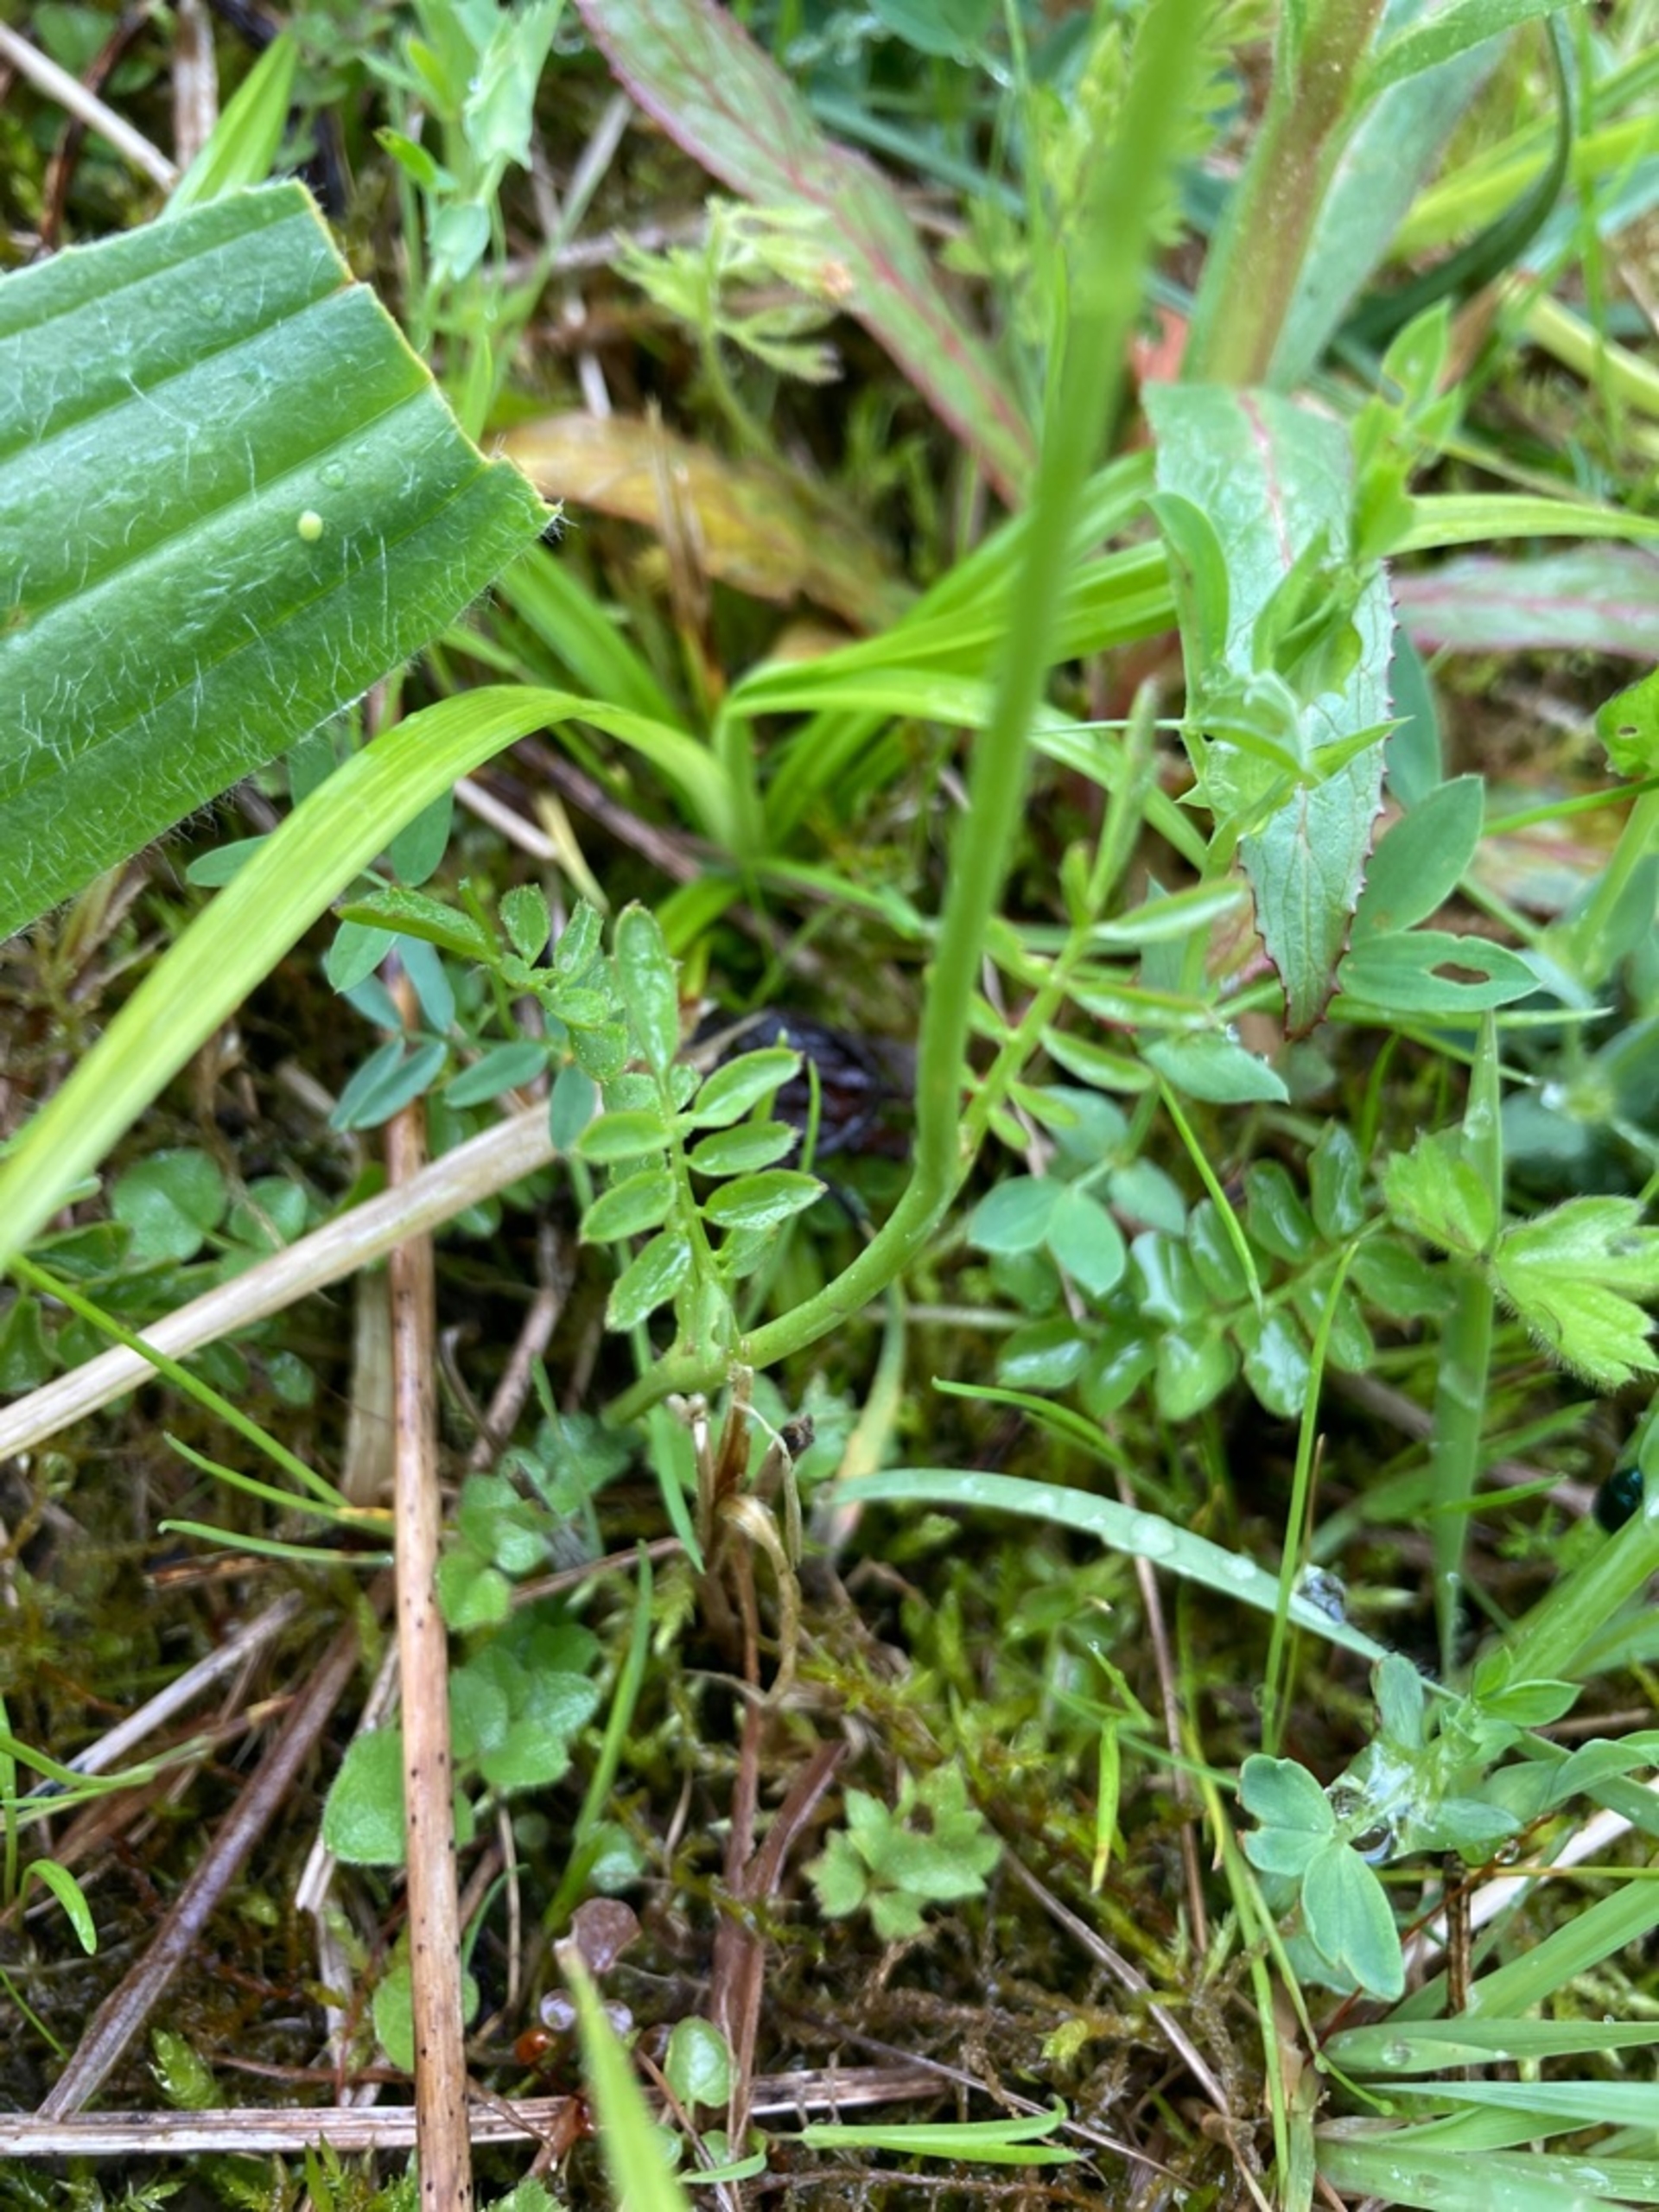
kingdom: Plantae
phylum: Tracheophyta
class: Magnoliopsida
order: Brassicales
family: Brassicaceae
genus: Cardamine
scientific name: Cardamine pratensis
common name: Engkarse
